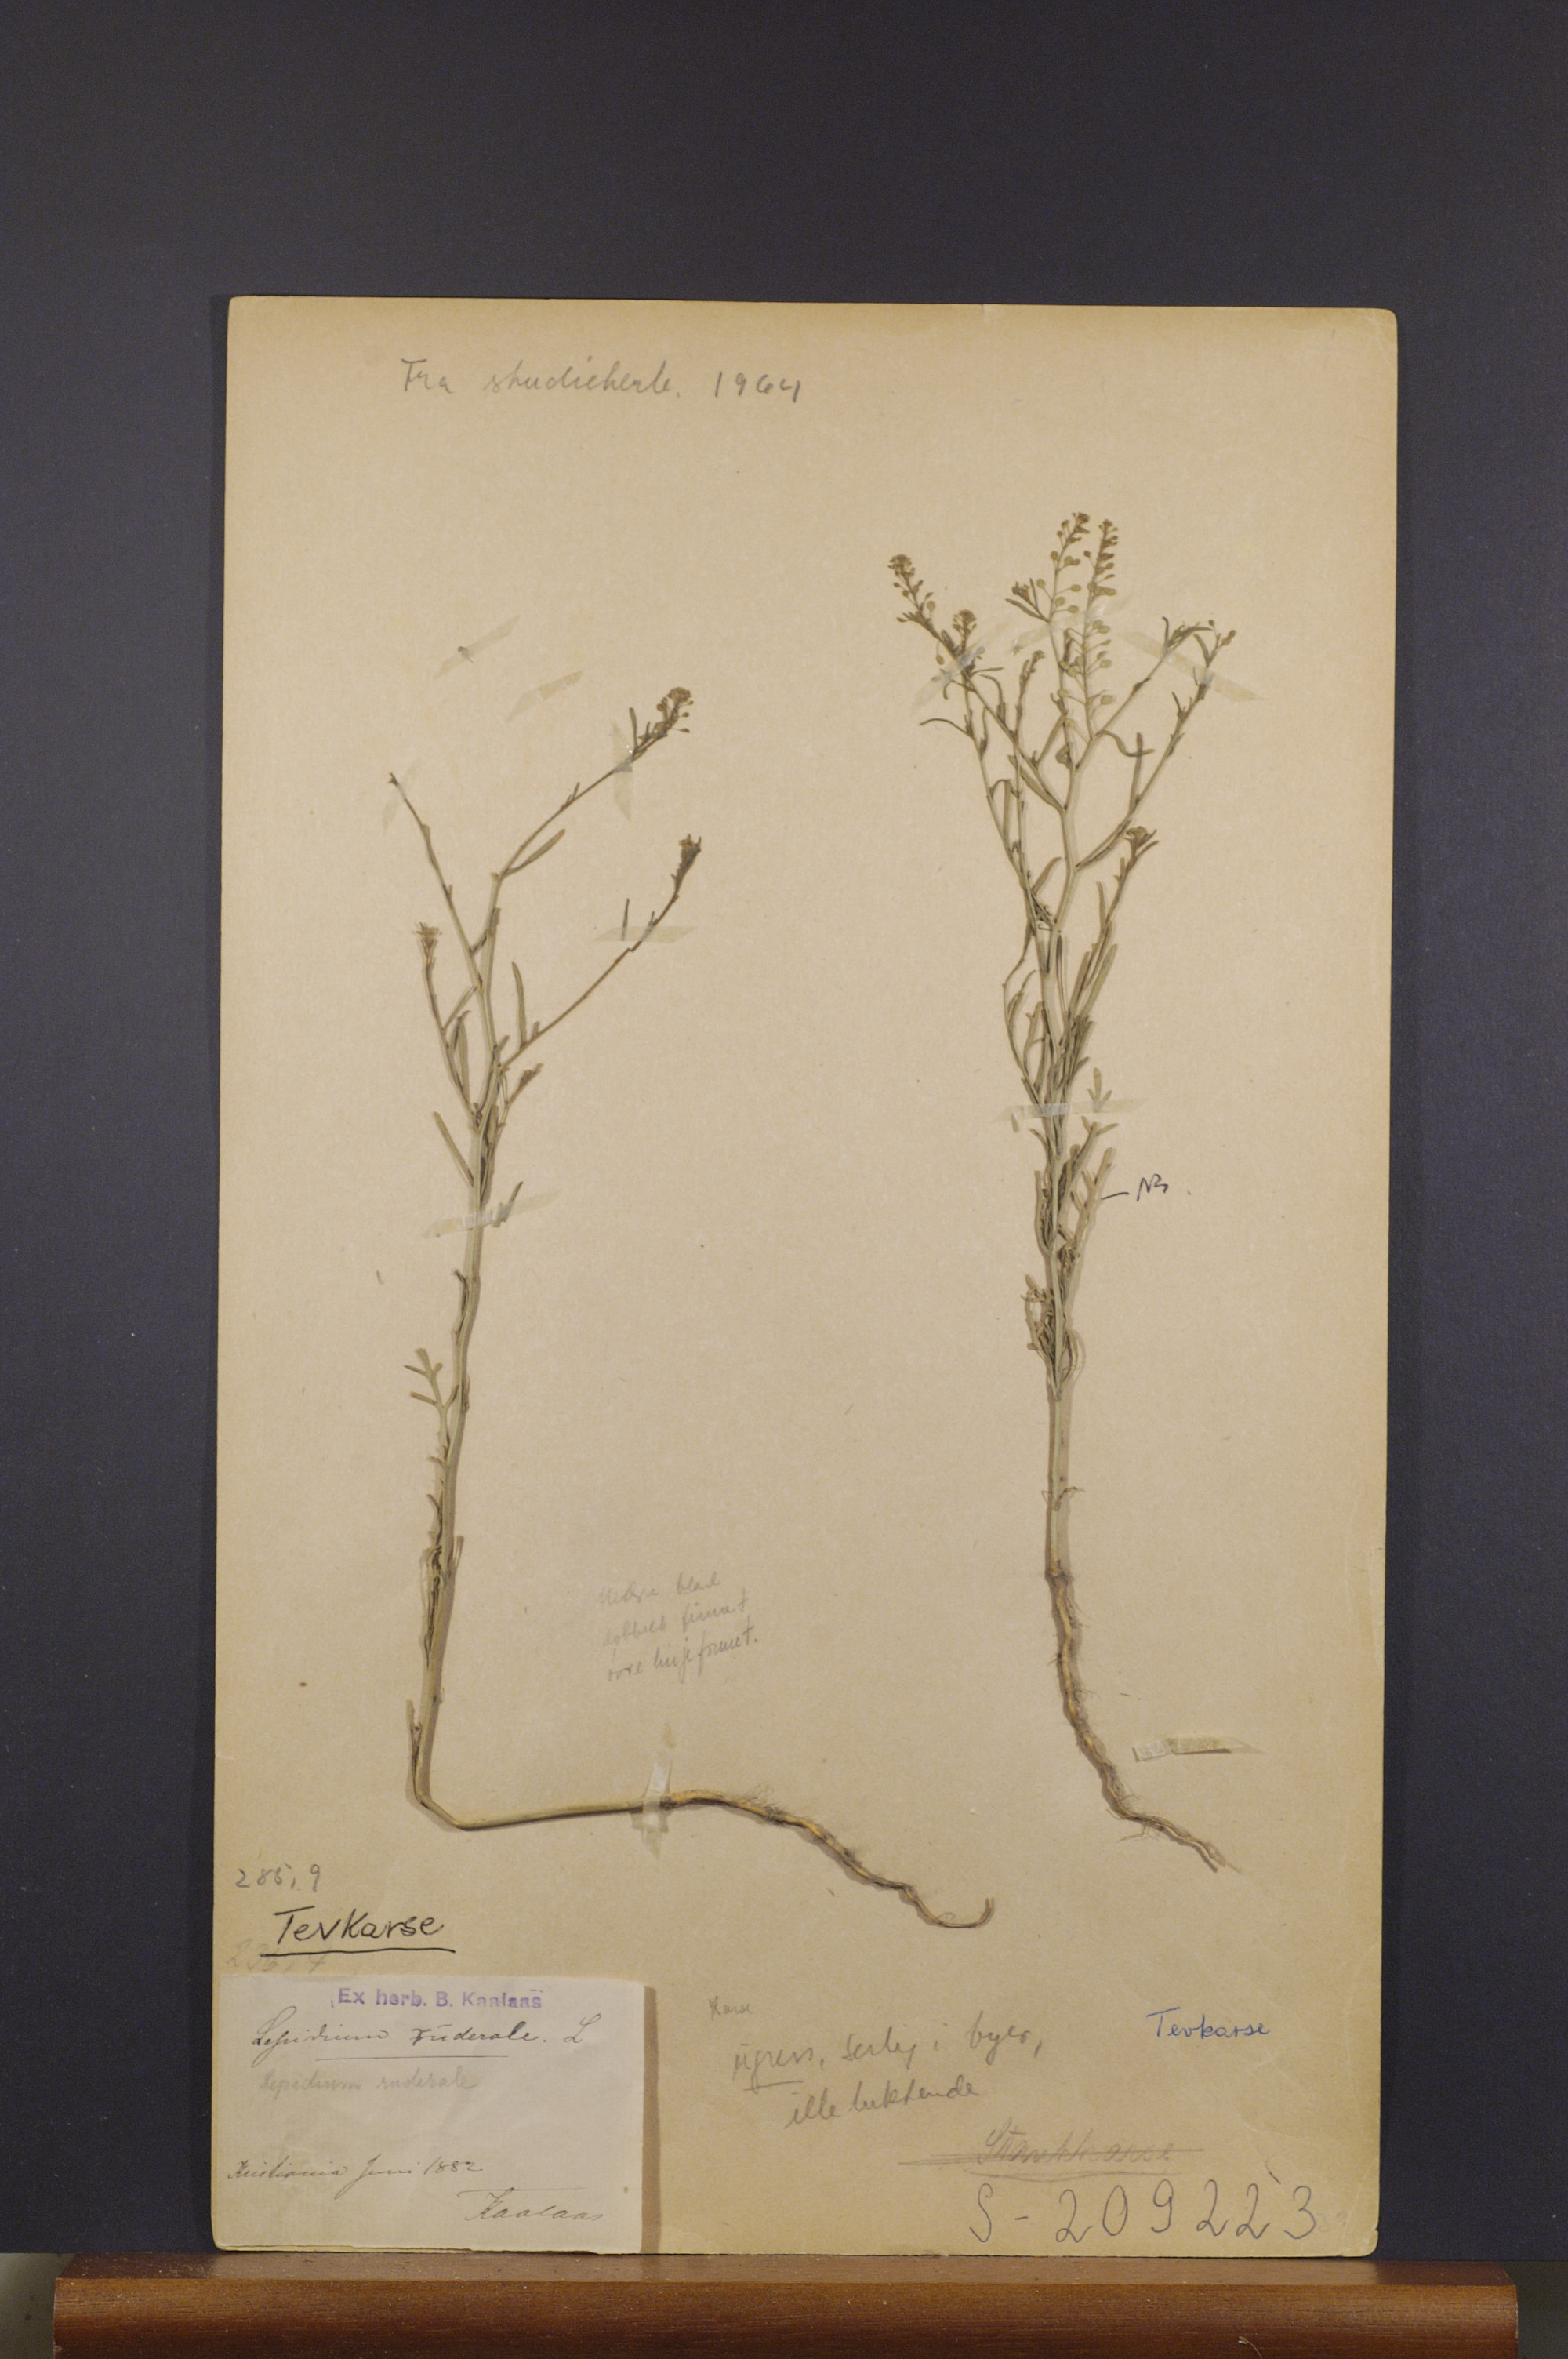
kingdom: Plantae
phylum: Tracheophyta
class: Magnoliopsida
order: Brassicales
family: Brassicaceae
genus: Lepidium
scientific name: Lepidium ruderale
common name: Narrow-leaved pepperwort
